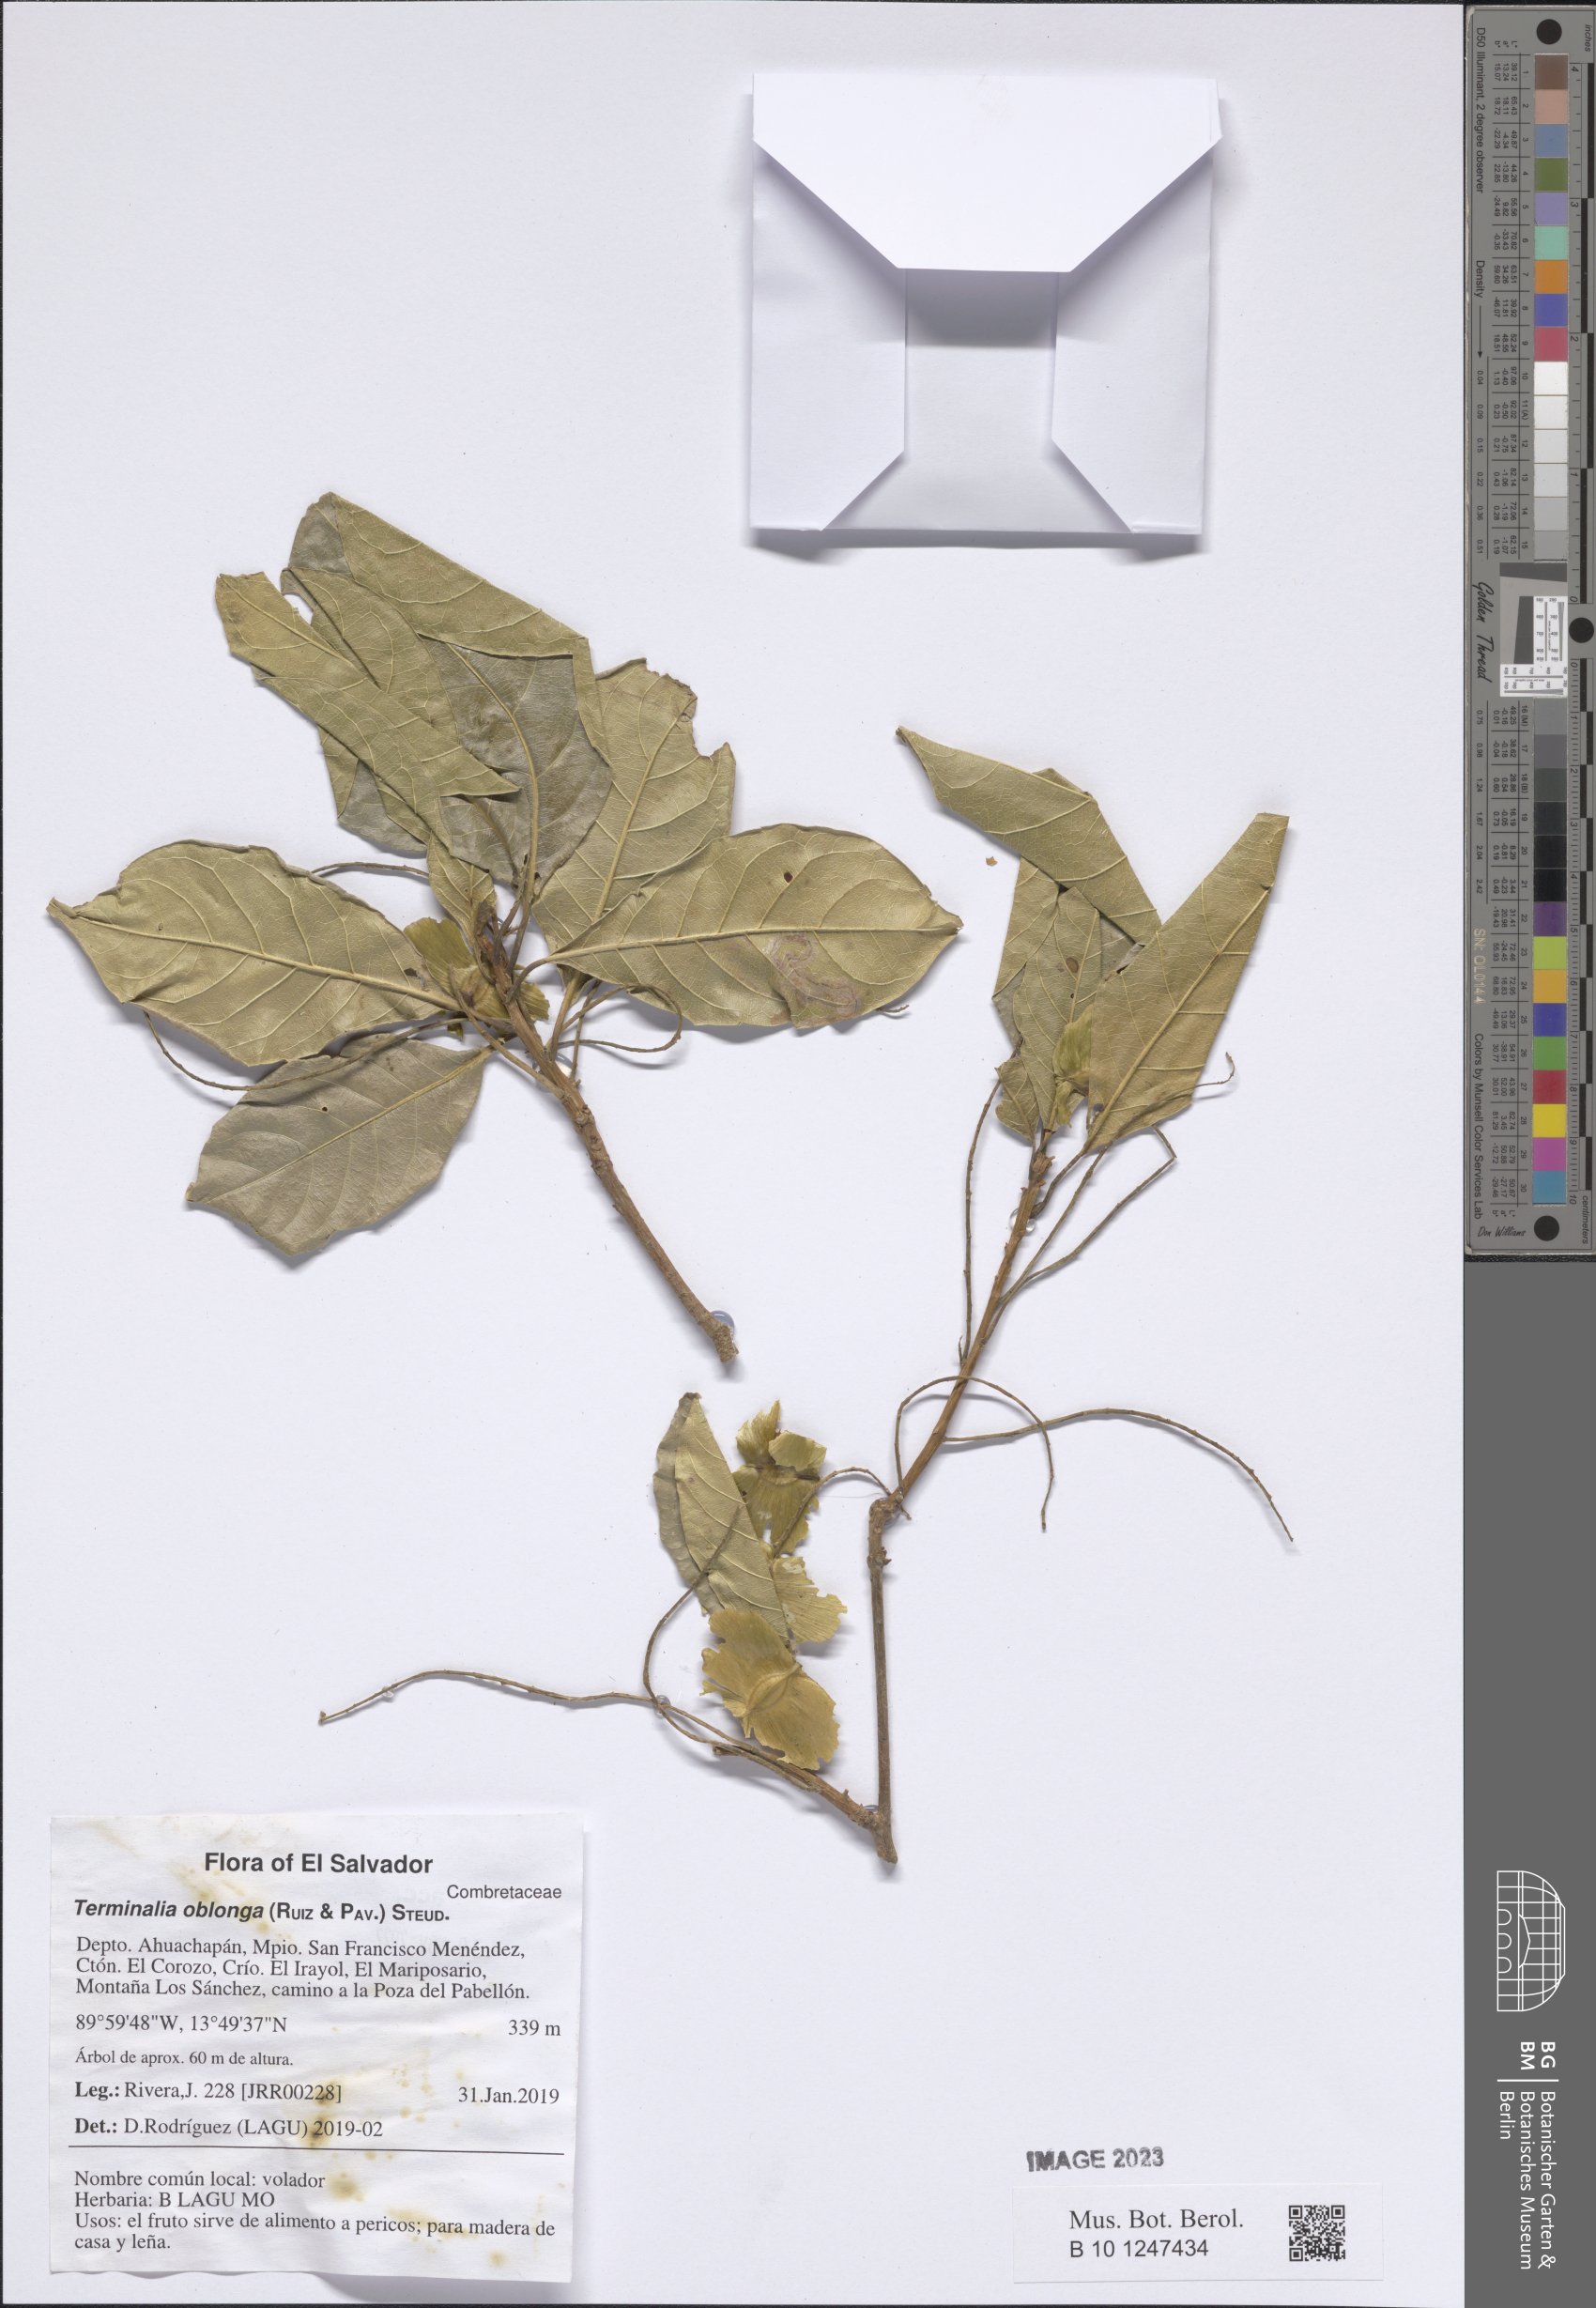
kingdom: Plantae
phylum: Tracheophyta
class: Magnoliopsida
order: Myrtales
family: Combretaceae
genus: Terminalia
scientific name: Terminalia oblonga
